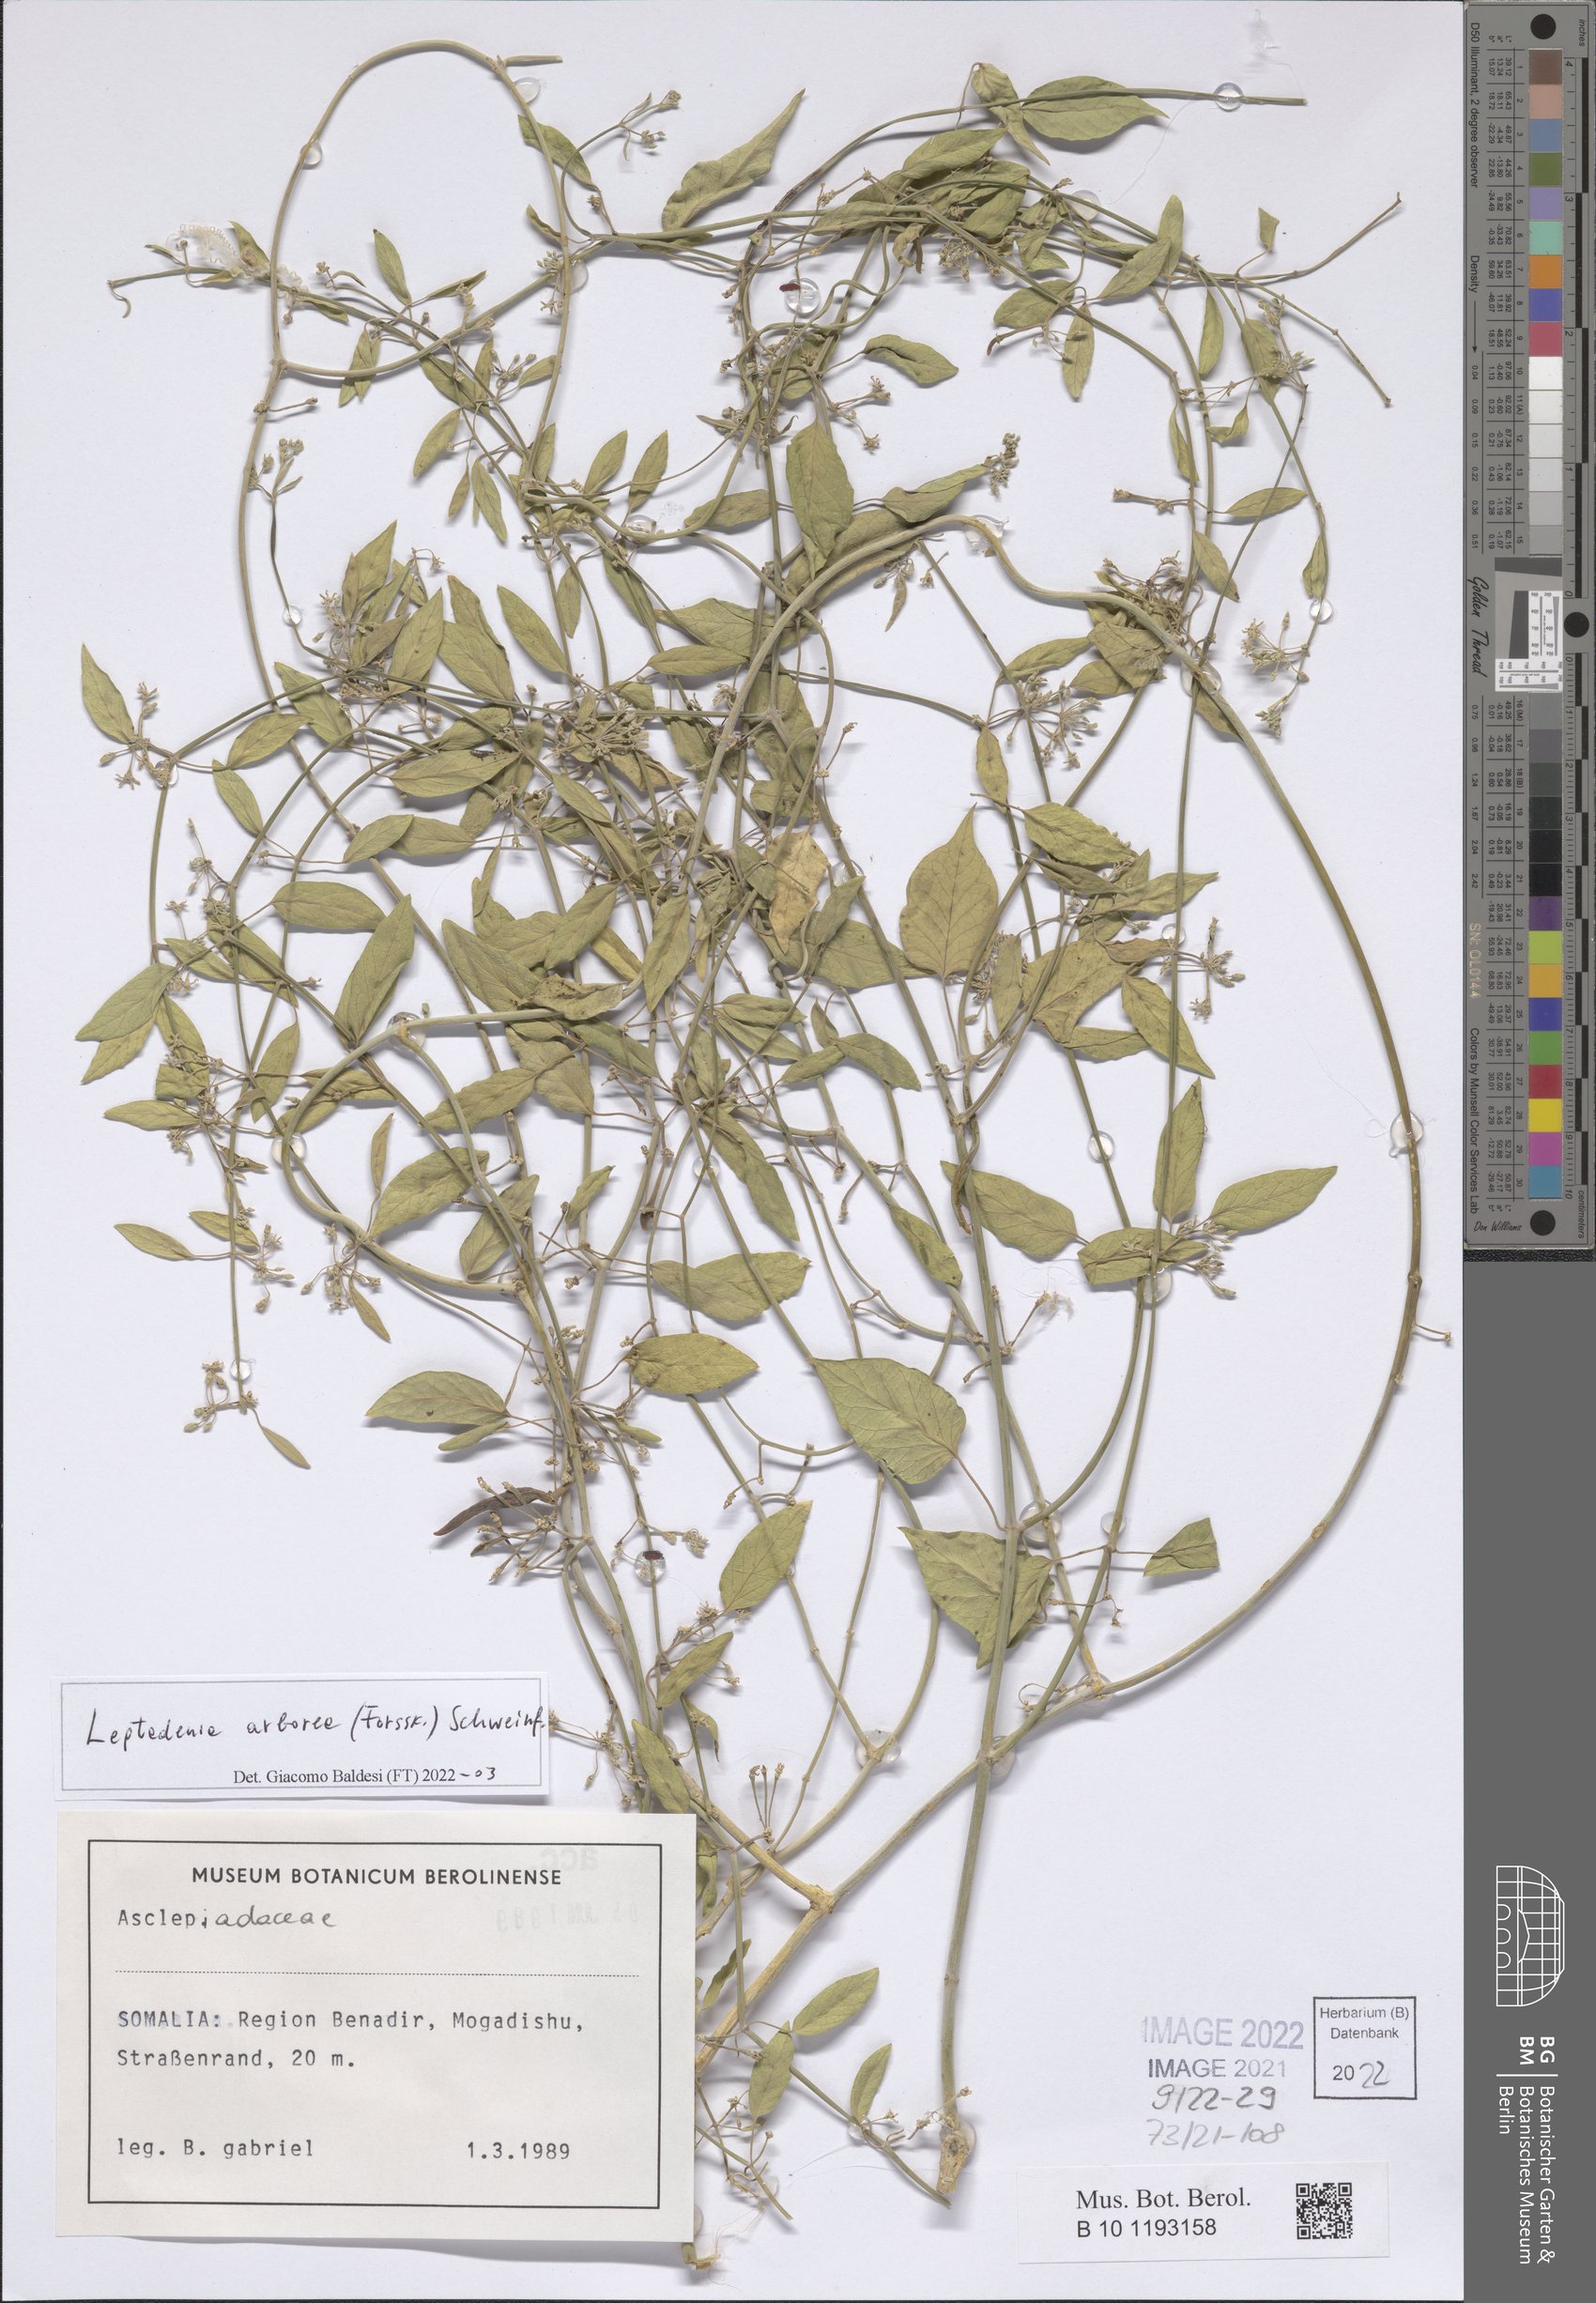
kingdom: Plantae
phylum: Tracheophyta
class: Magnoliopsida
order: Gentianales
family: Apocynaceae
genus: Leptadenia
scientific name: Leptadenia arborea
